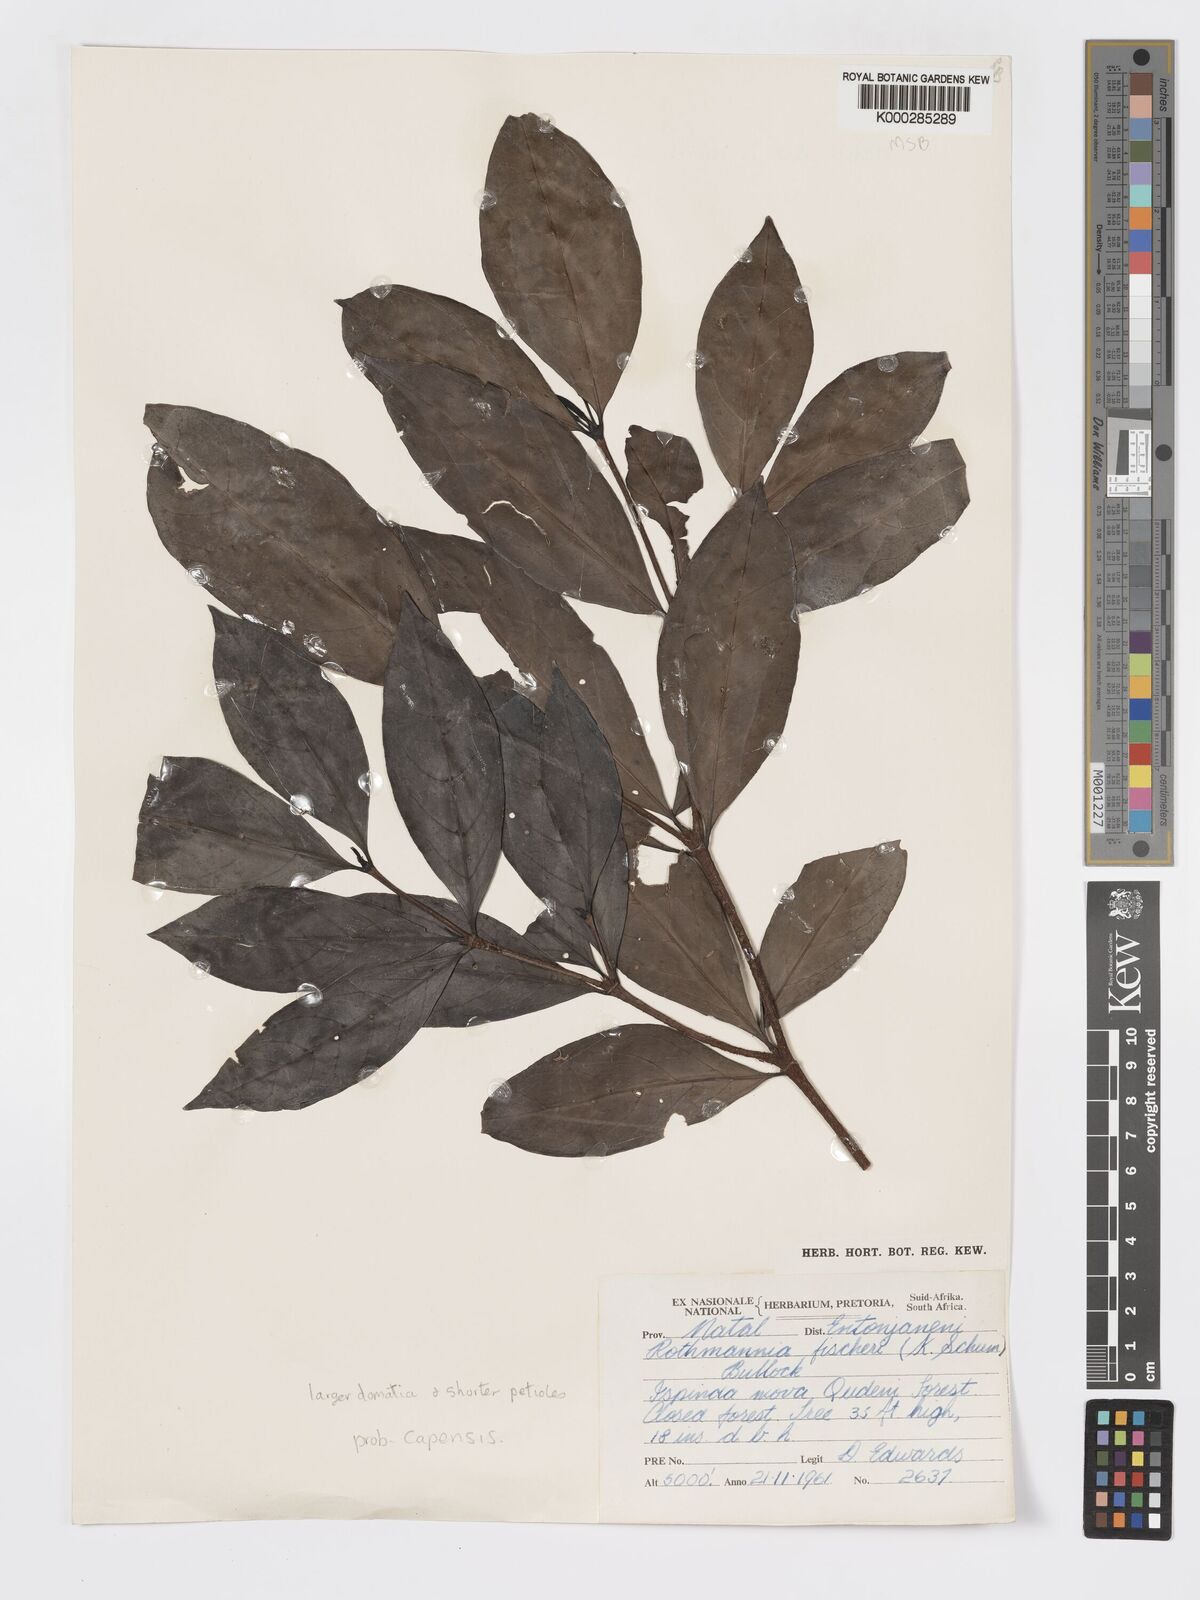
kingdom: Plantae
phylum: Tracheophyta
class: Magnoliopsida
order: Gentianales
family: Rubiaceae
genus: Rothmannia
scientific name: Rothmannia capensis
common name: Cape gardenia
